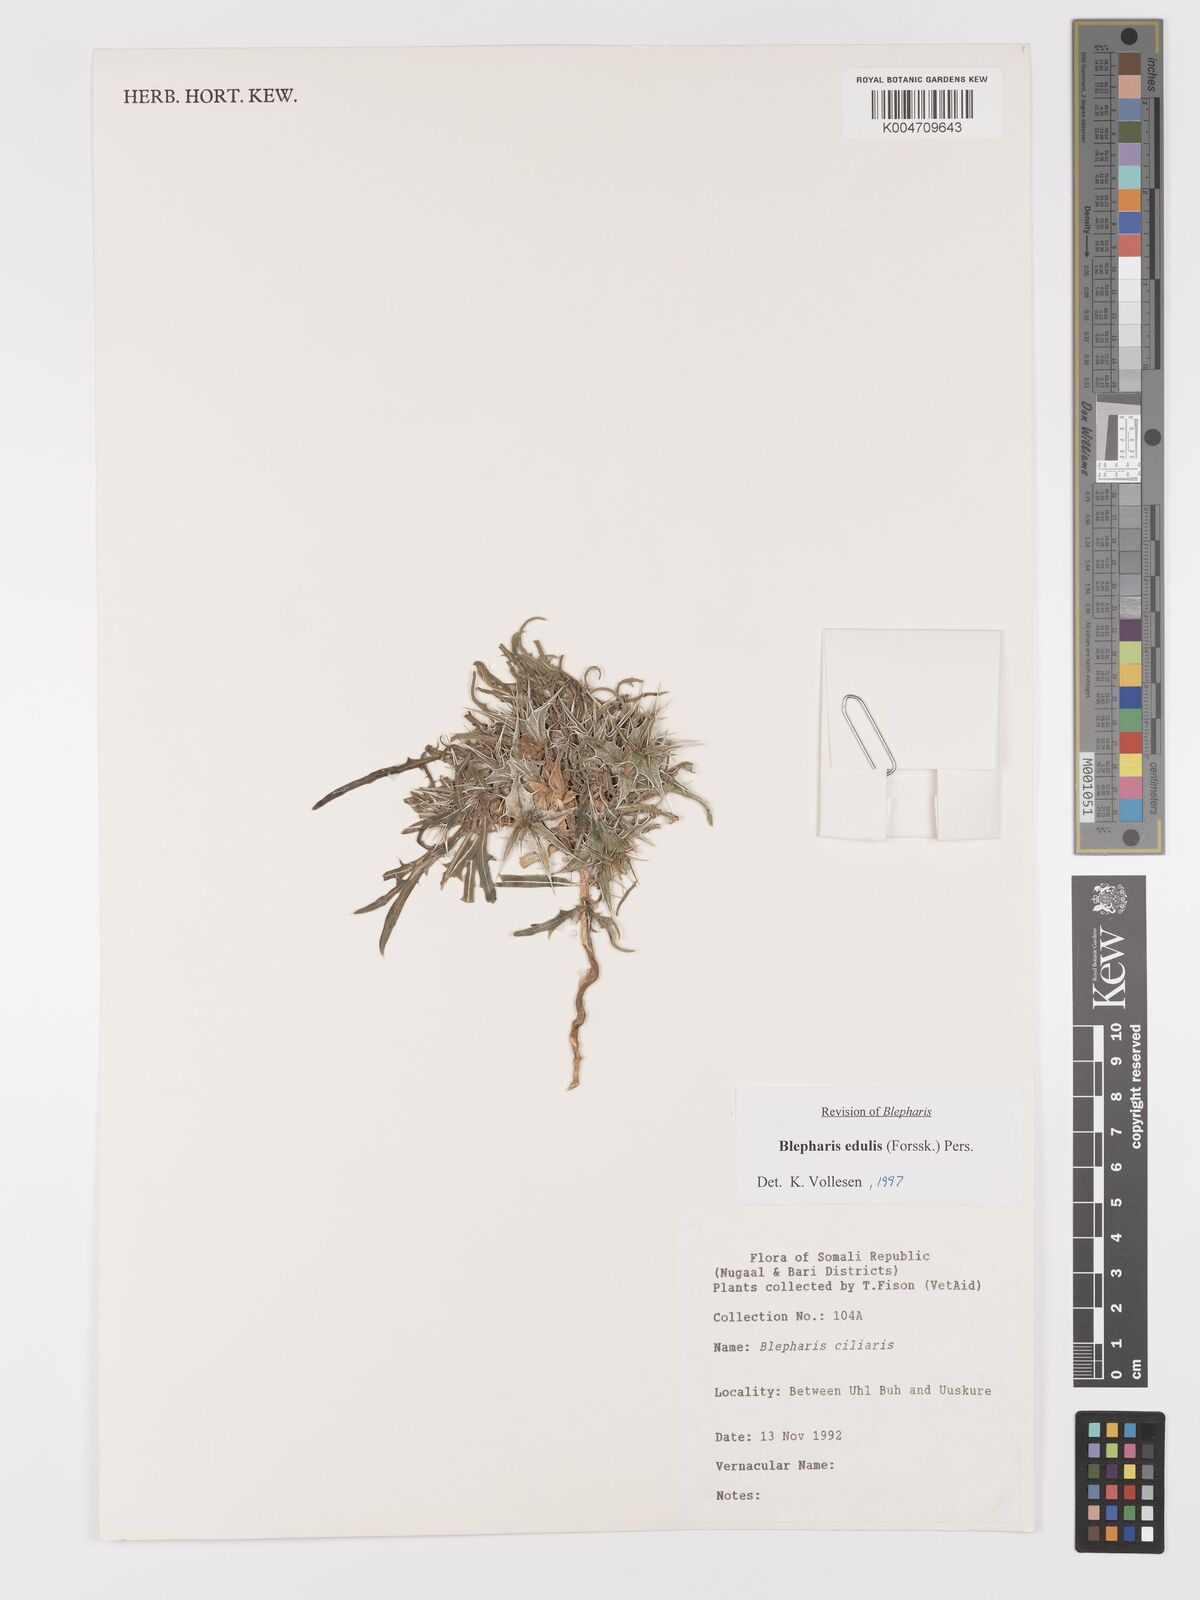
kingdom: Plantae
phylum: Tracheophyta
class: Magnoliopsida
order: Lamiales
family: Acanthaceae
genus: Blepharis
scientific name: Blepharis edulis
